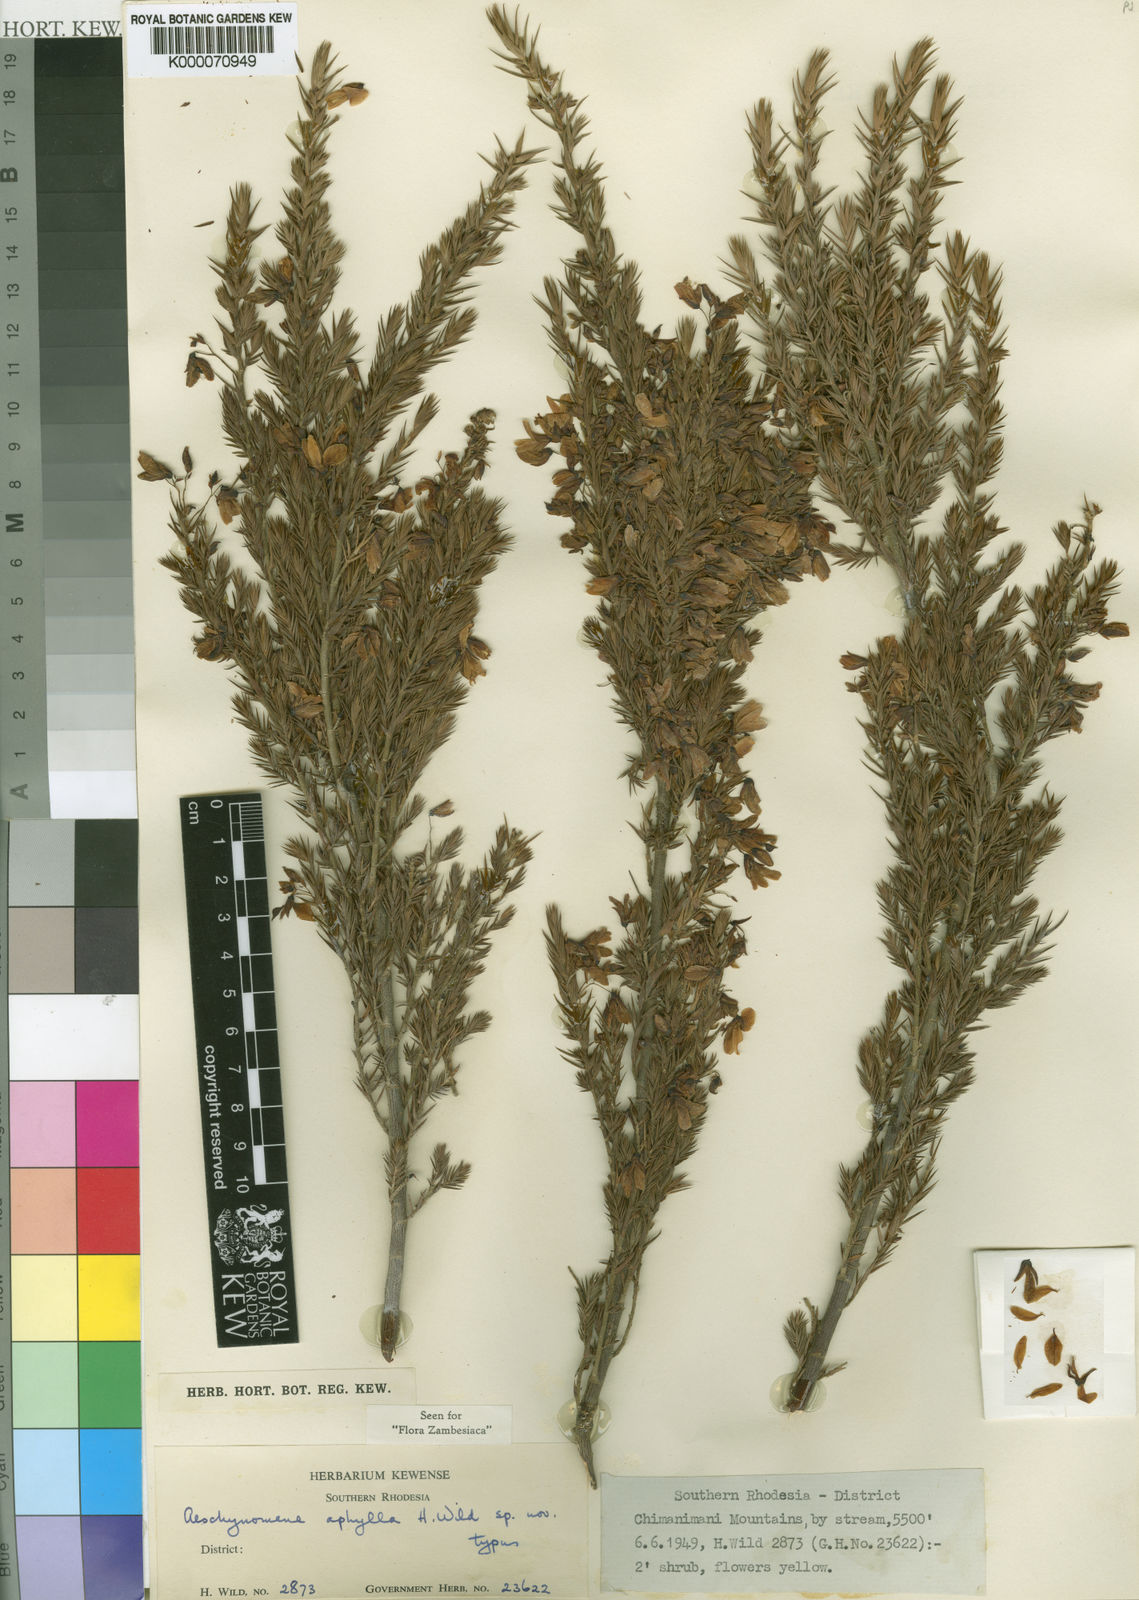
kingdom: Plantae
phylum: Tracheophyta
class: Magnoliopsida
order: Fabales
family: Fabaceae
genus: Aeschynomene
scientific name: Aeschynomene aphylla
